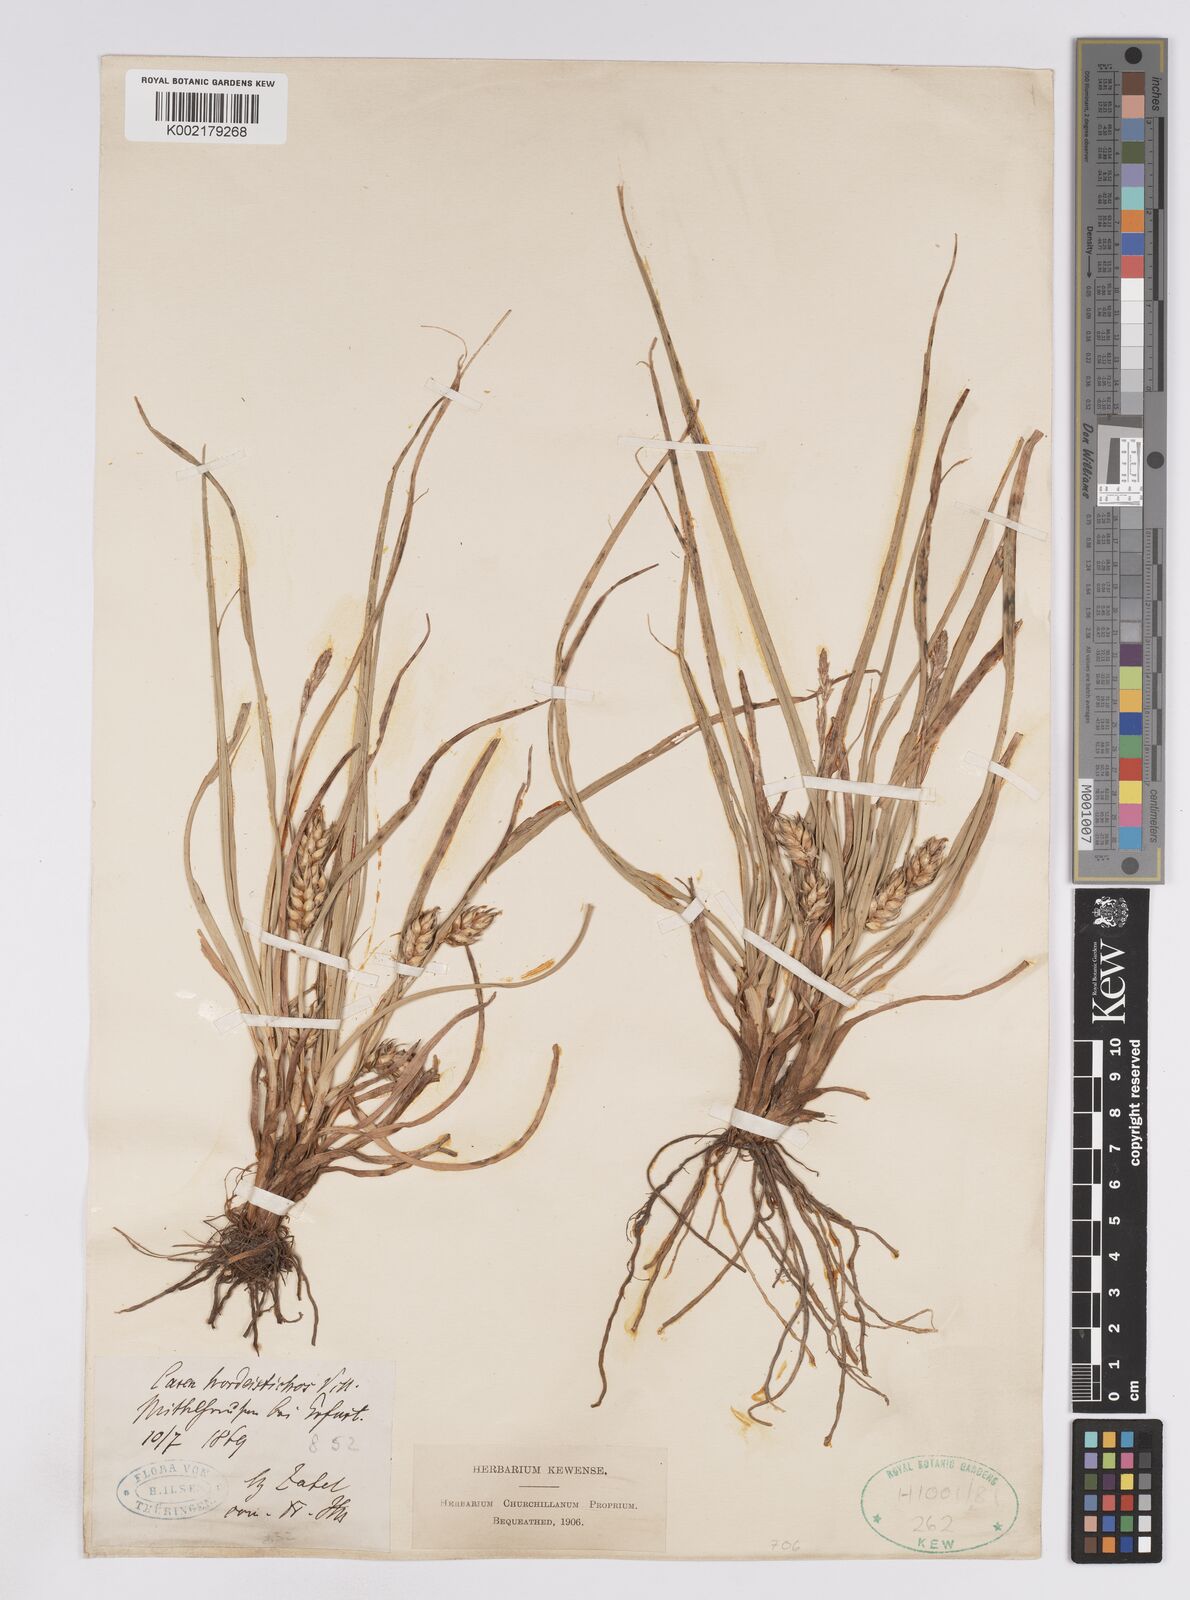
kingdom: Plantae
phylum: Tracheophyta
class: Liliopsida
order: Poales
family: Cyperaceae
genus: Carex
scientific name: Carex hordeistichos
